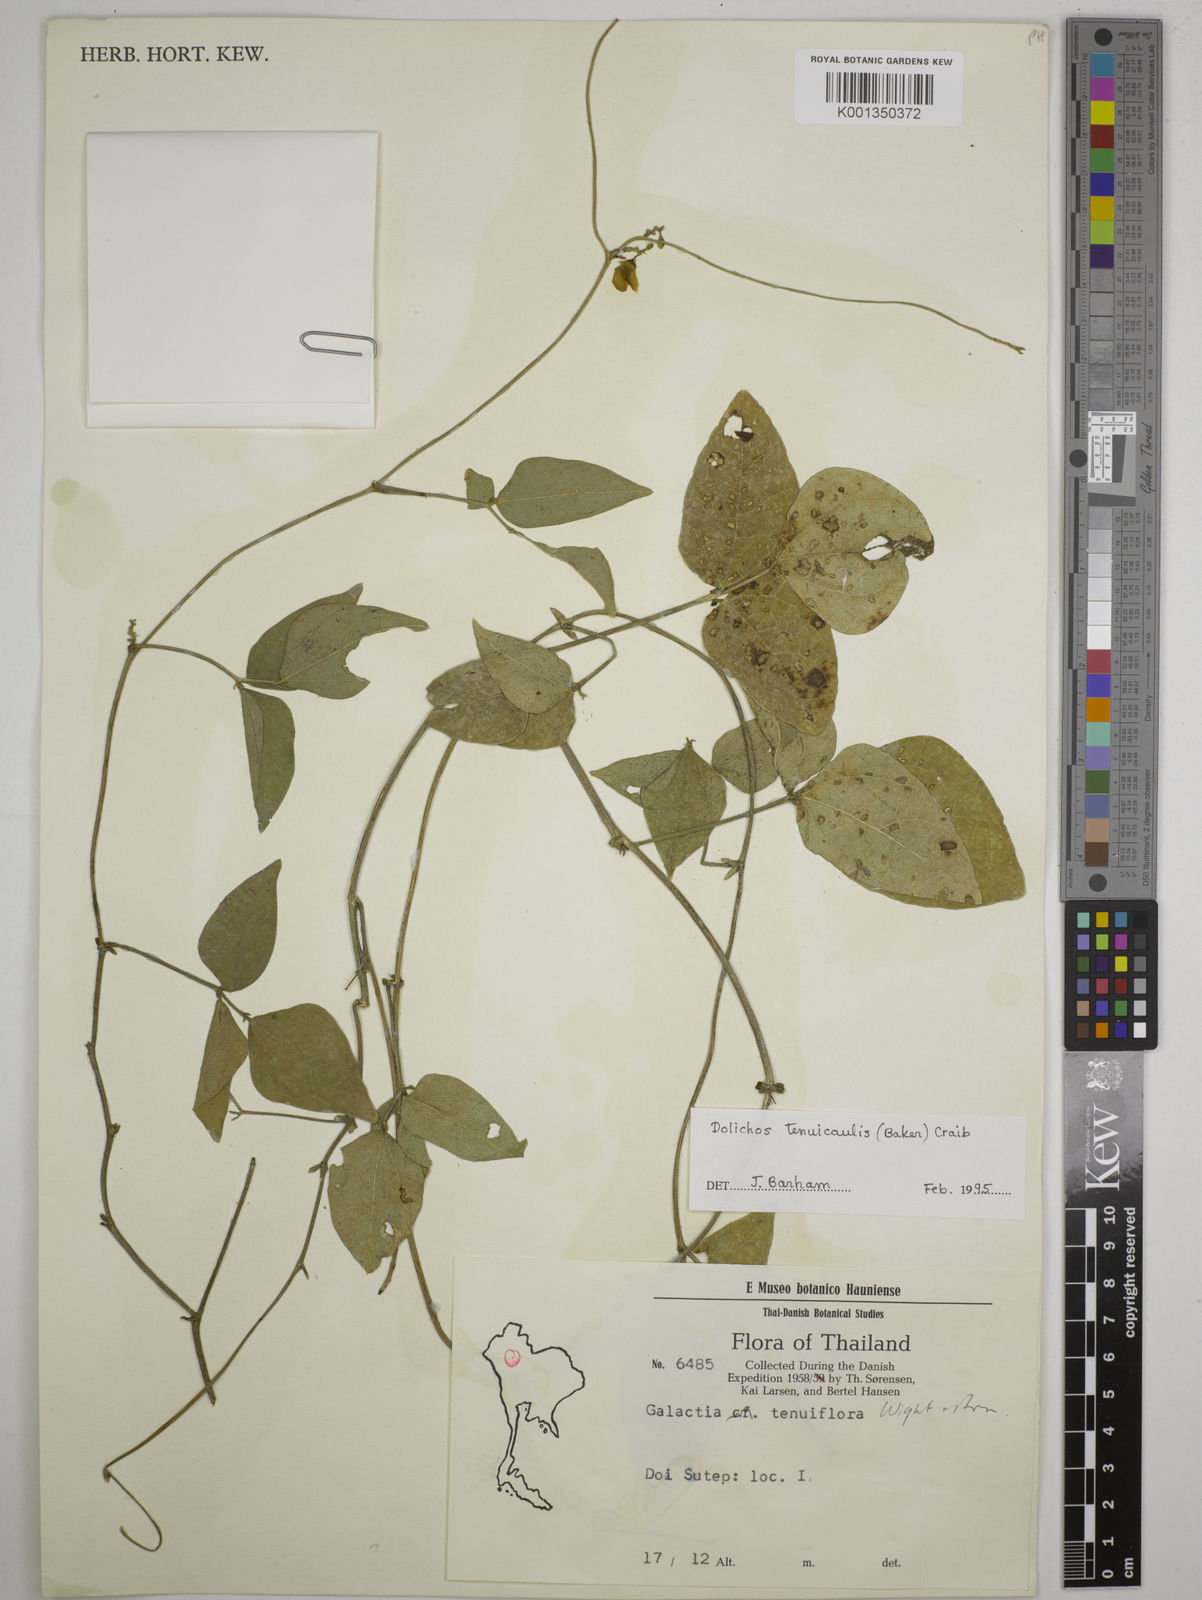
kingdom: Plantae
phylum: Tracheophyta
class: Magnoliopsida
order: Fabales
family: Fabaceae
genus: Dolichos
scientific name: Dolichos tenuicaulis
